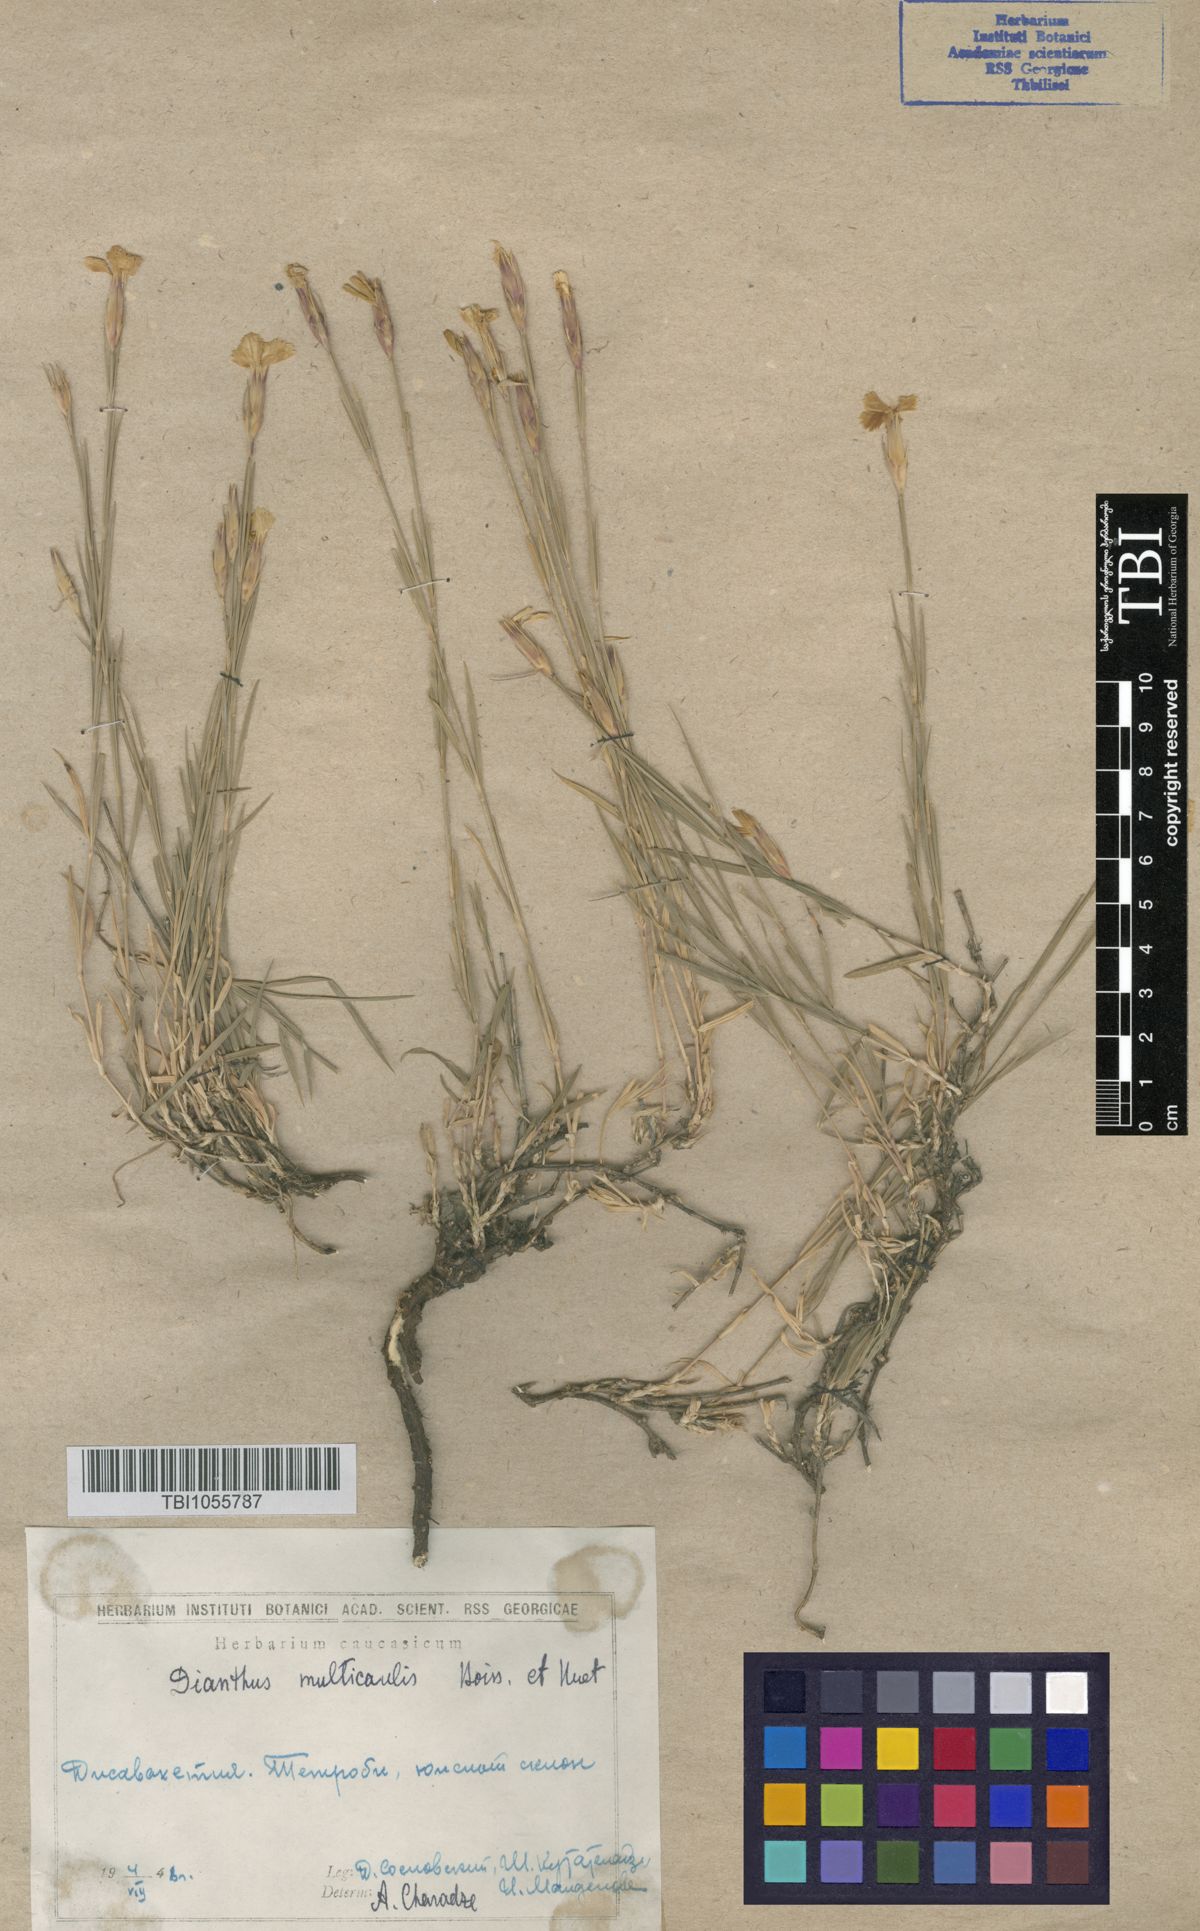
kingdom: Plantae
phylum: Tracheophyta
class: Magnoliopsida
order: Caryophyllales
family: Caryophyllaceae
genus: Dianthus
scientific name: Dianthus cretaceus
